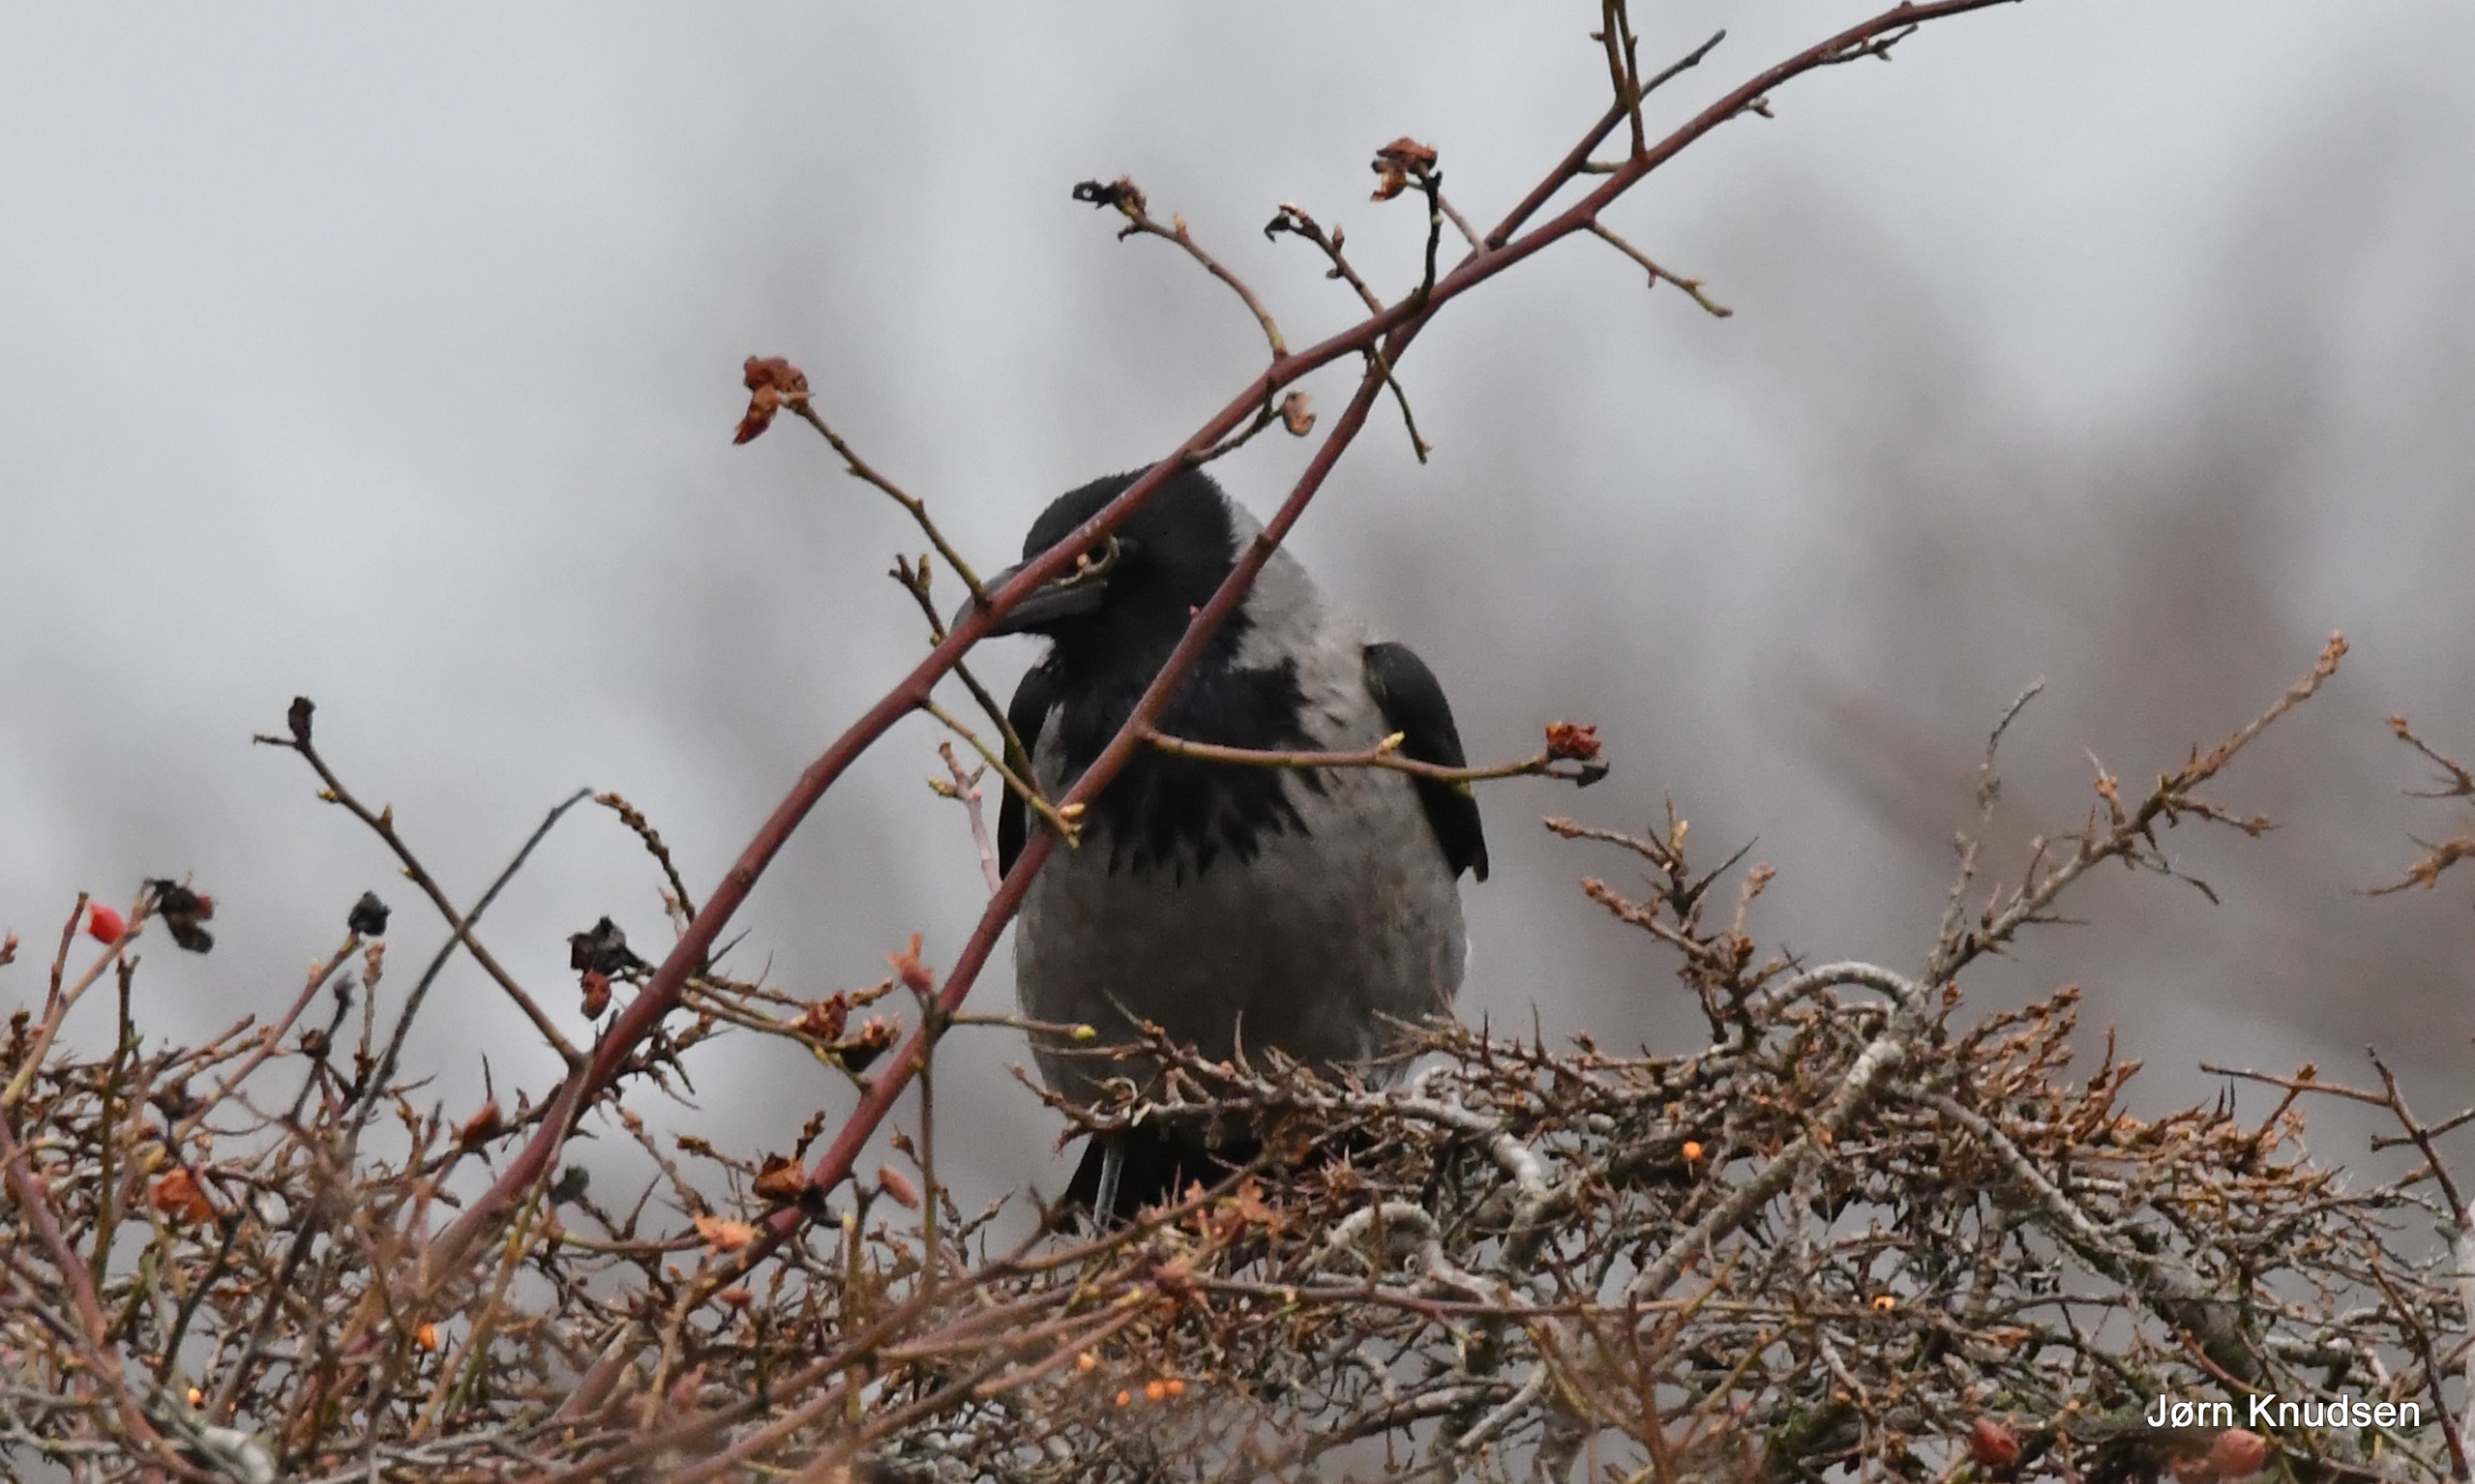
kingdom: Animalia
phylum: Chordata
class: Aves
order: Passeriformes
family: Corvidae
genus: Corvus
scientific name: Corvus cornix
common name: Gråkrage
